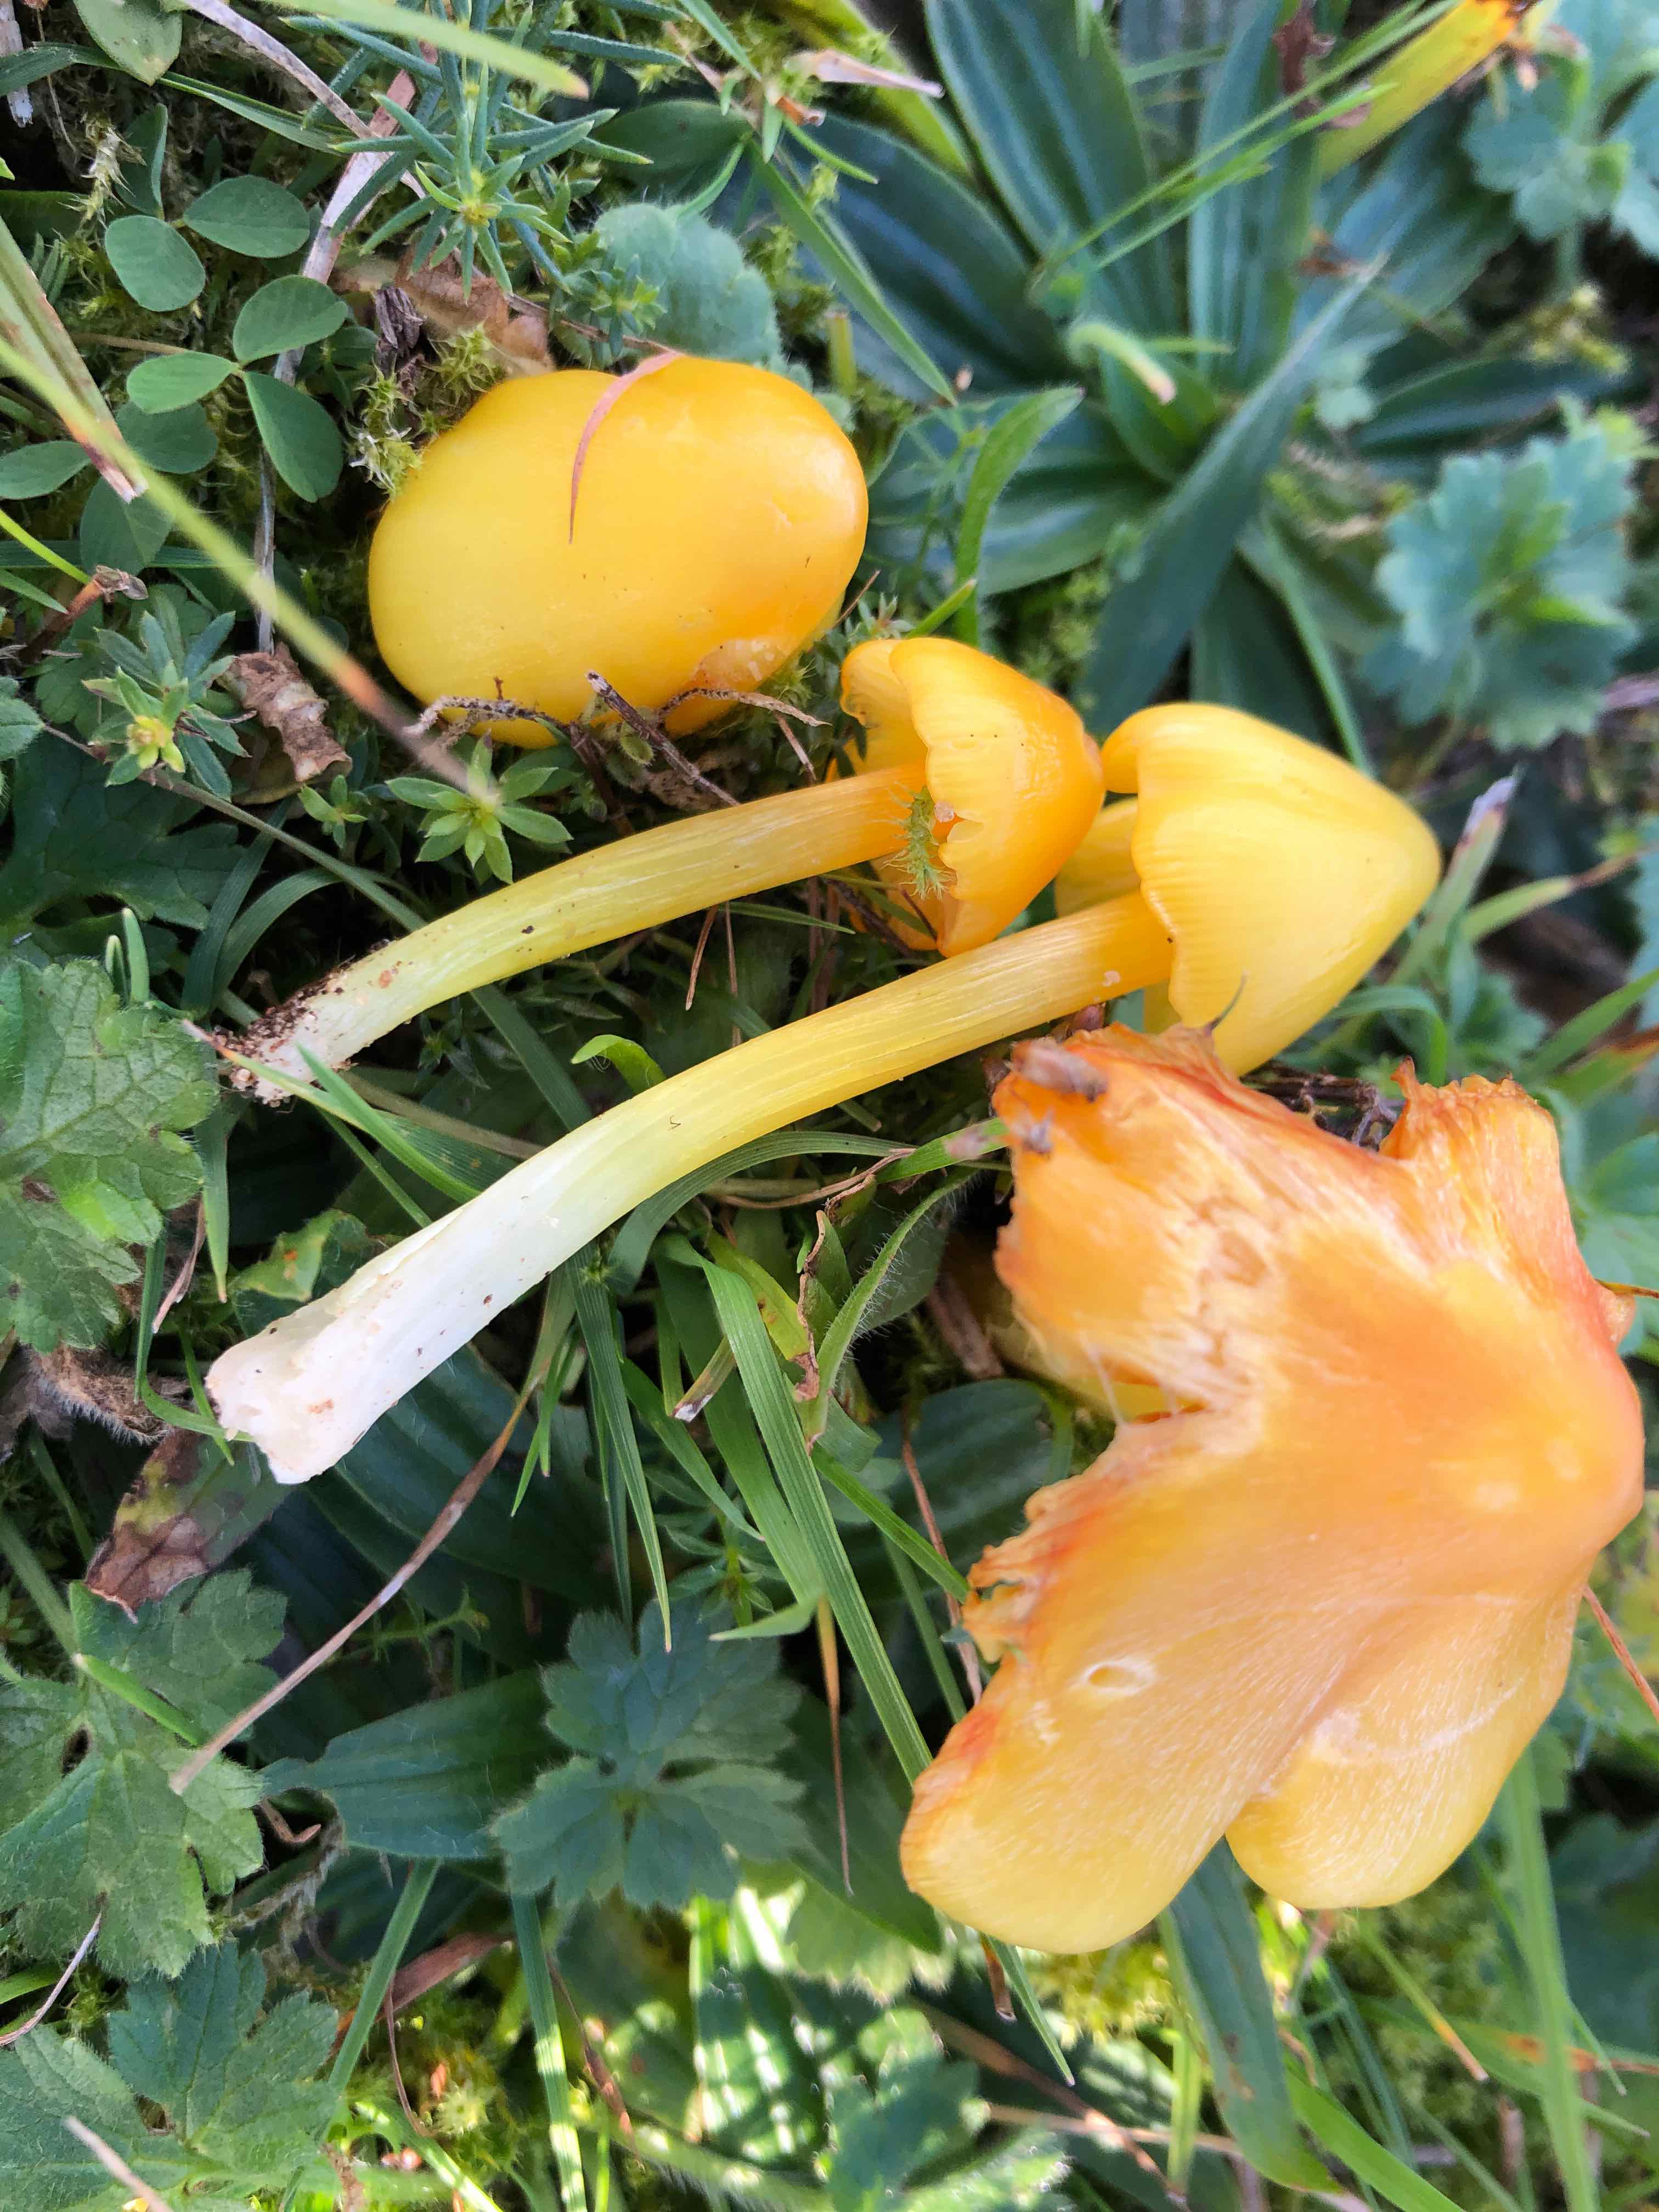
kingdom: Fungi
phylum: Basidiomycota
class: Agaricomycetes
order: Agaricales
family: Hygrophoraceae
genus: Hygrocybe
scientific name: Hygrocybe acutoconica
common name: spidspuklet vokshat
